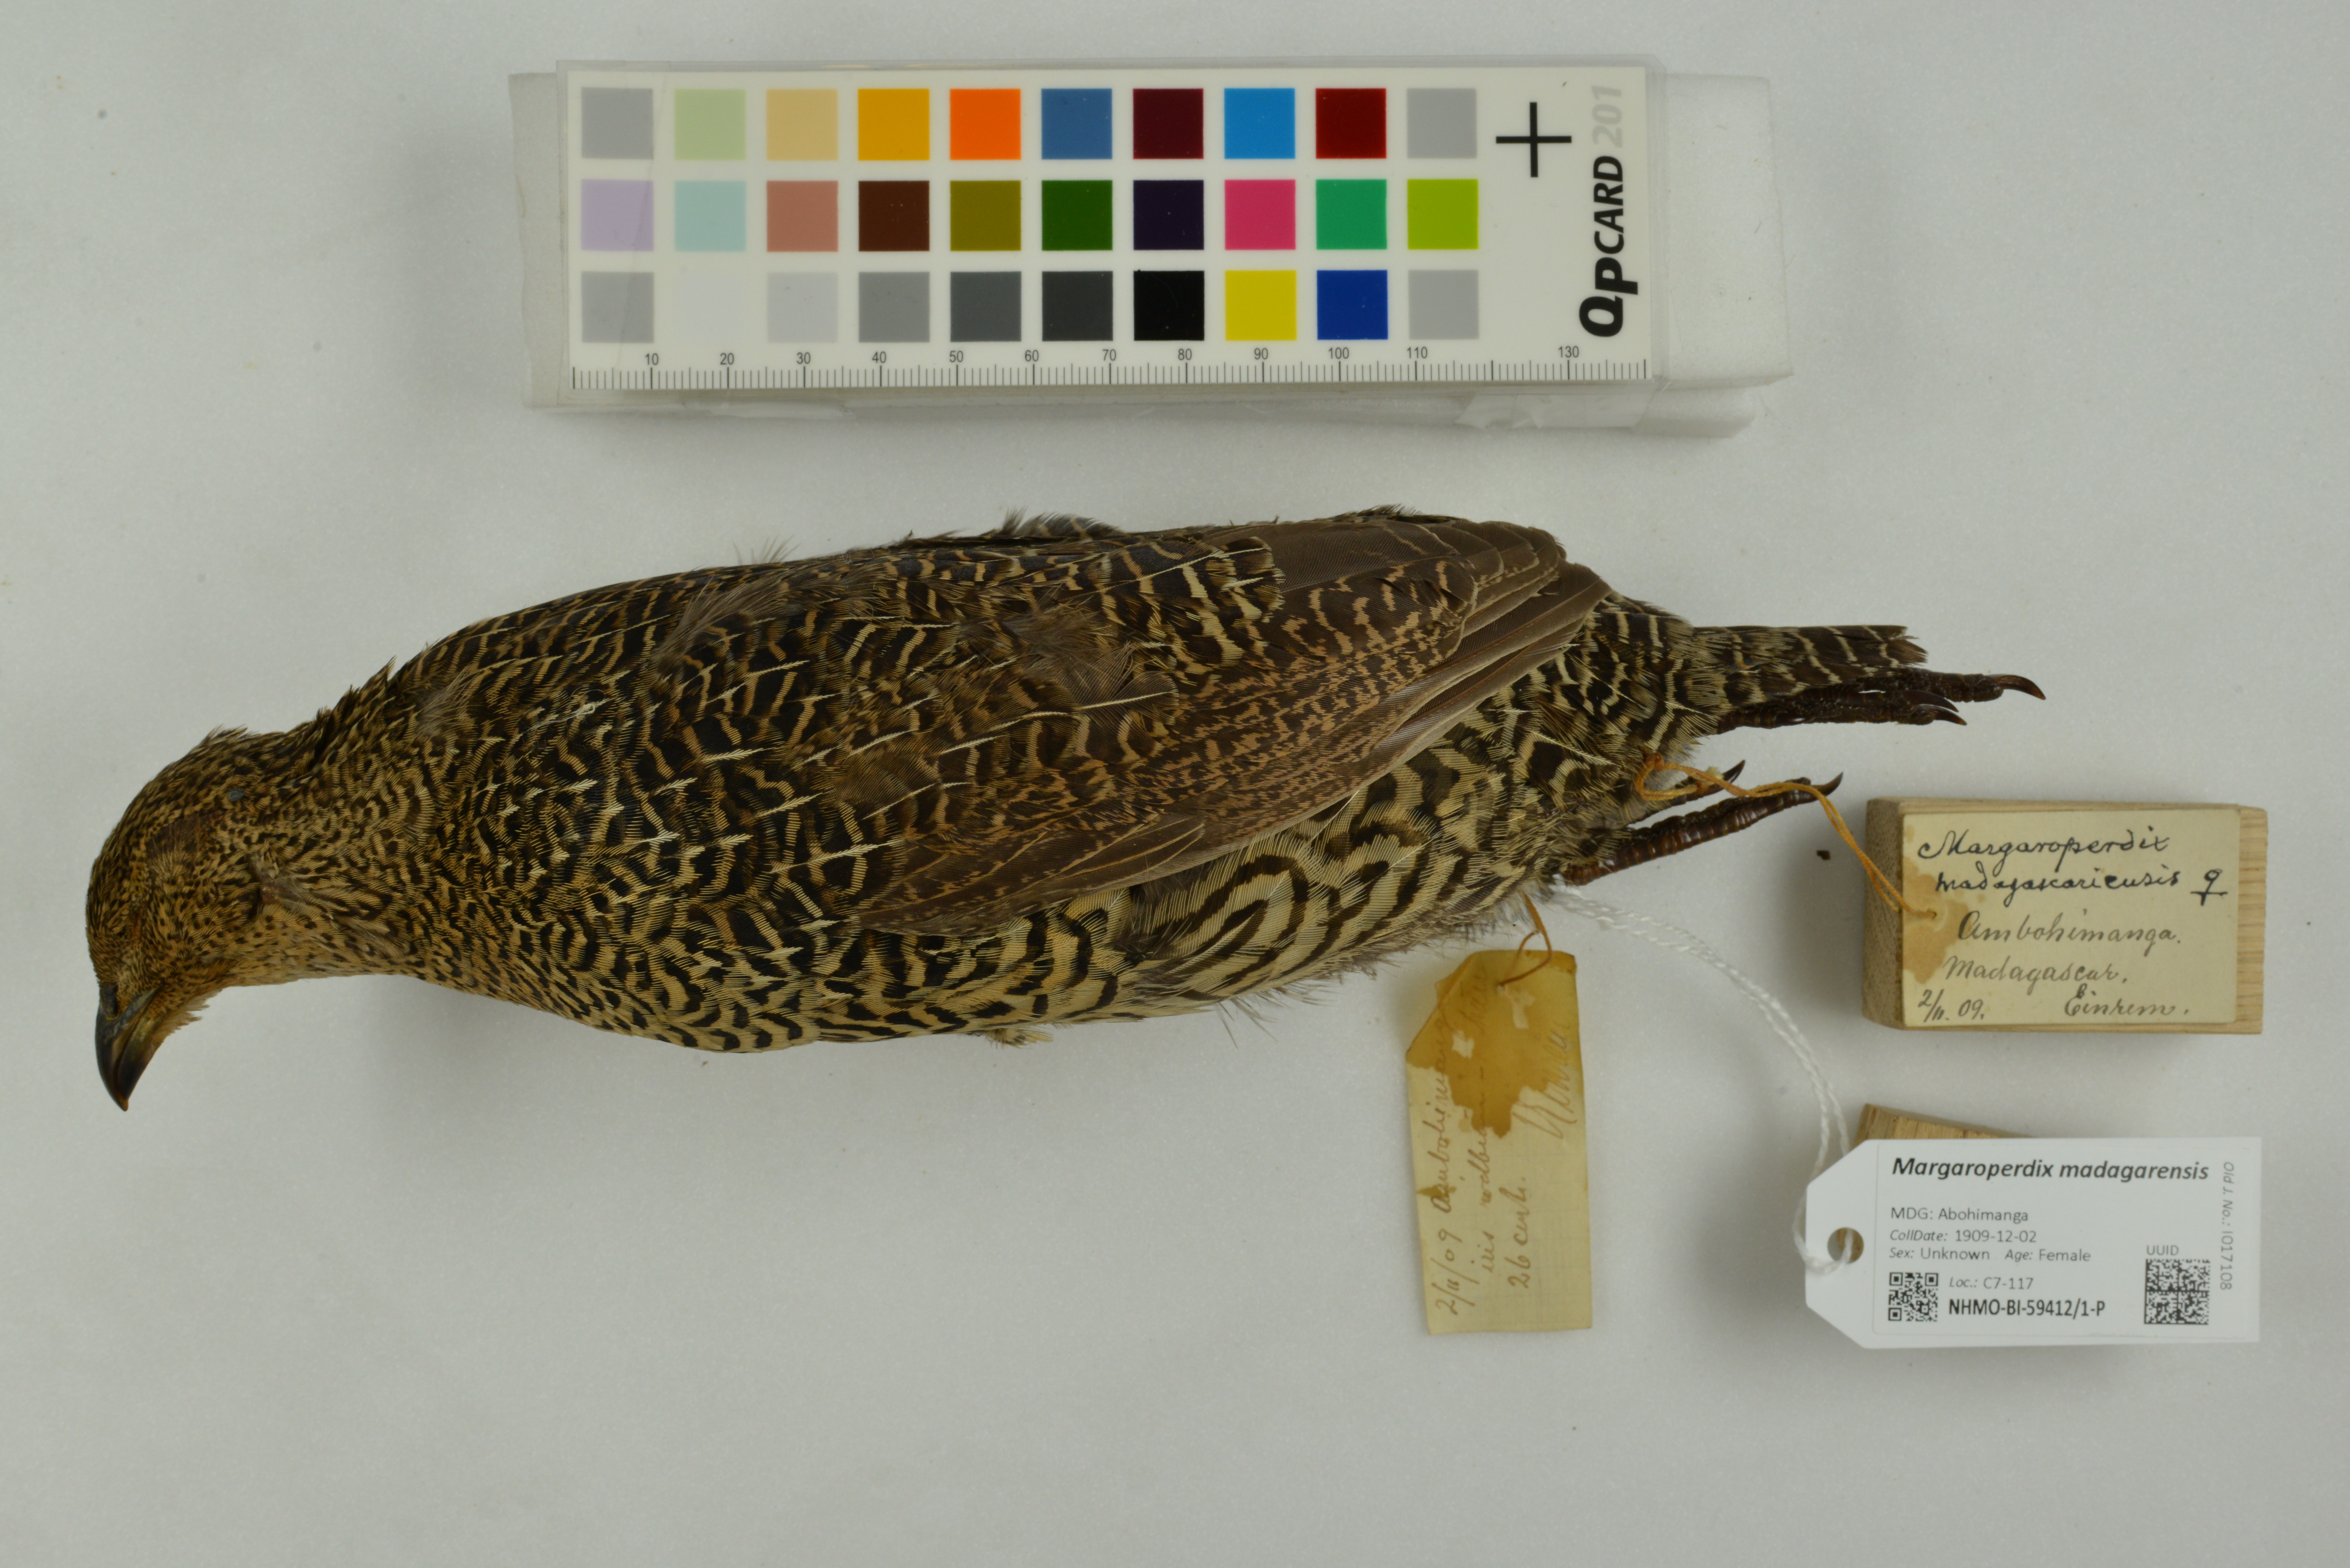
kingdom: Animalia
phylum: Chordata
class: Aves
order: Galliformes
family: Phasianidae
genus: Margaroperdix
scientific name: Margaroperdix madagarensis
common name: Madagascar partridge
